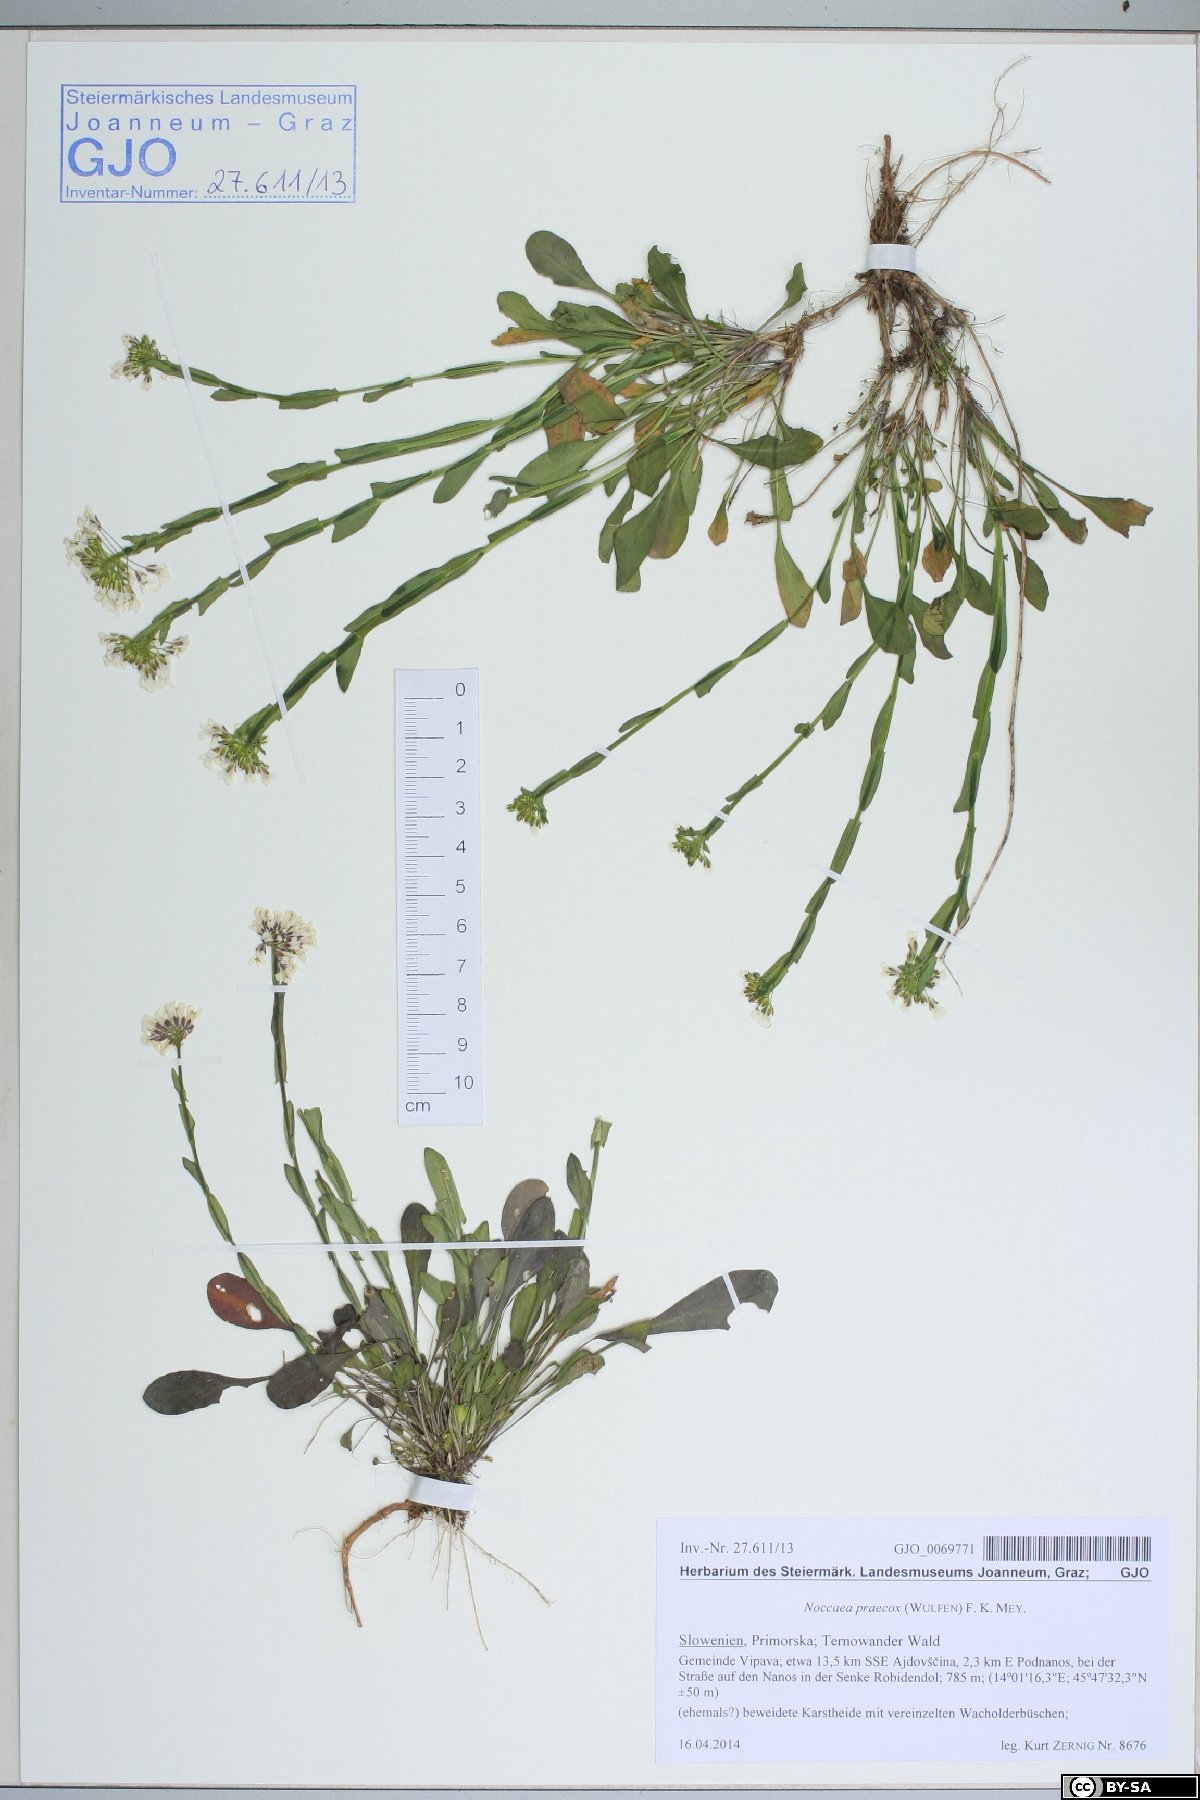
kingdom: Plantae
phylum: Tracheophyta
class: Magnoliopsida
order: Brassicales
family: Brassicaceae
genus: Noccaea
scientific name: Noccaea praecox
